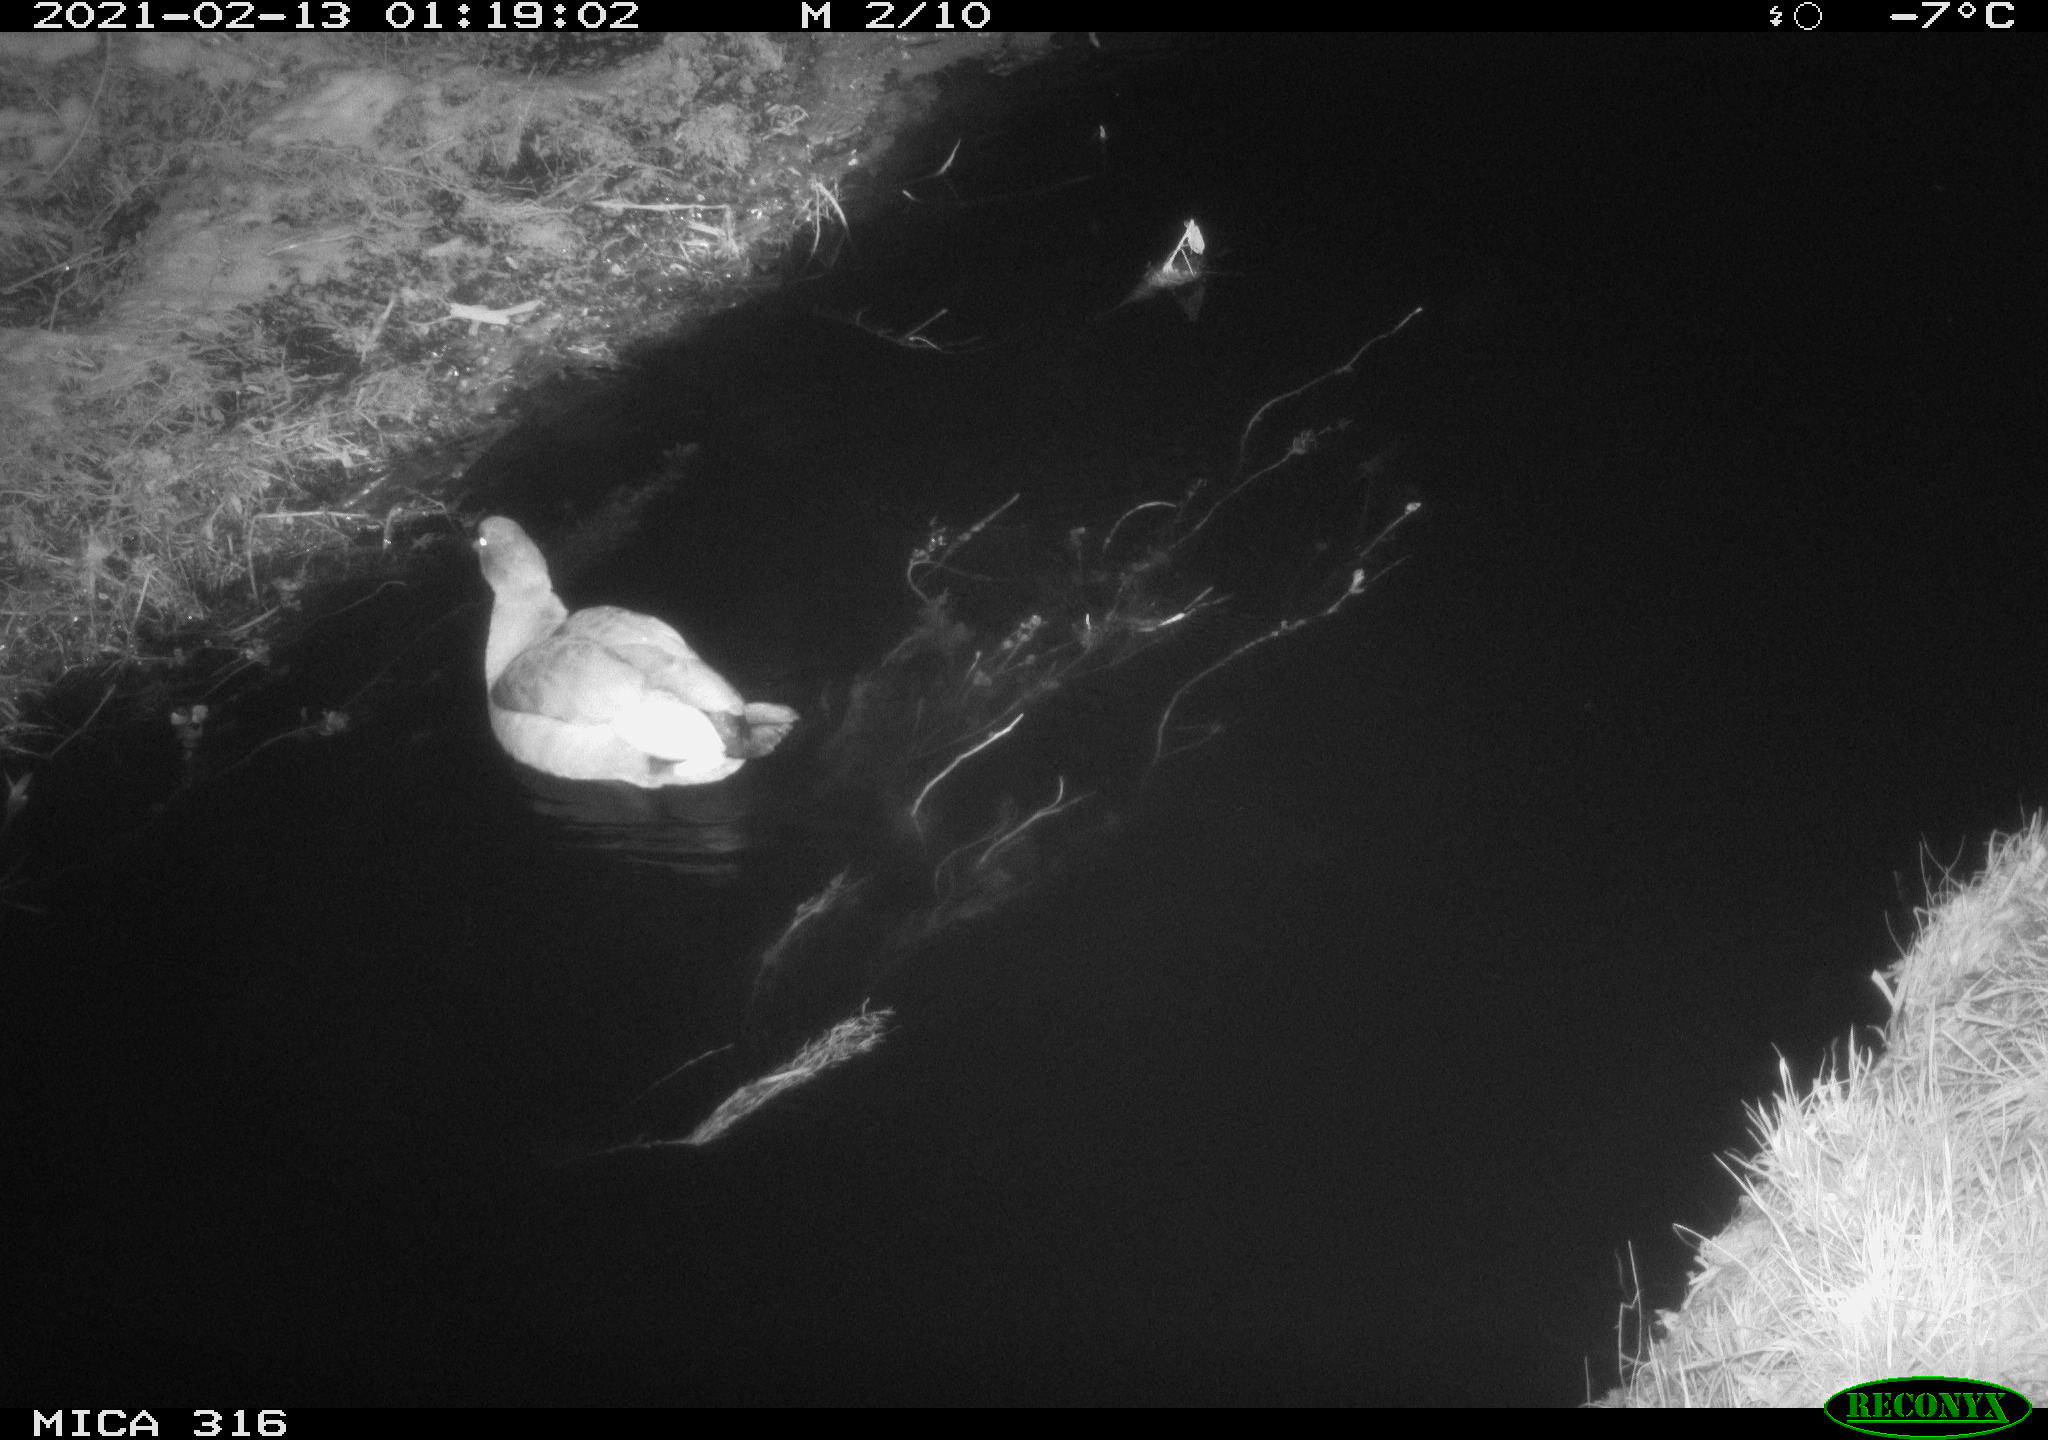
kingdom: Animalia
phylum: Chordata
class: Aves
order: Gruiformes
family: Rallidae
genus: Gallinula
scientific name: Gallinula chloropus
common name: Common moorhen
